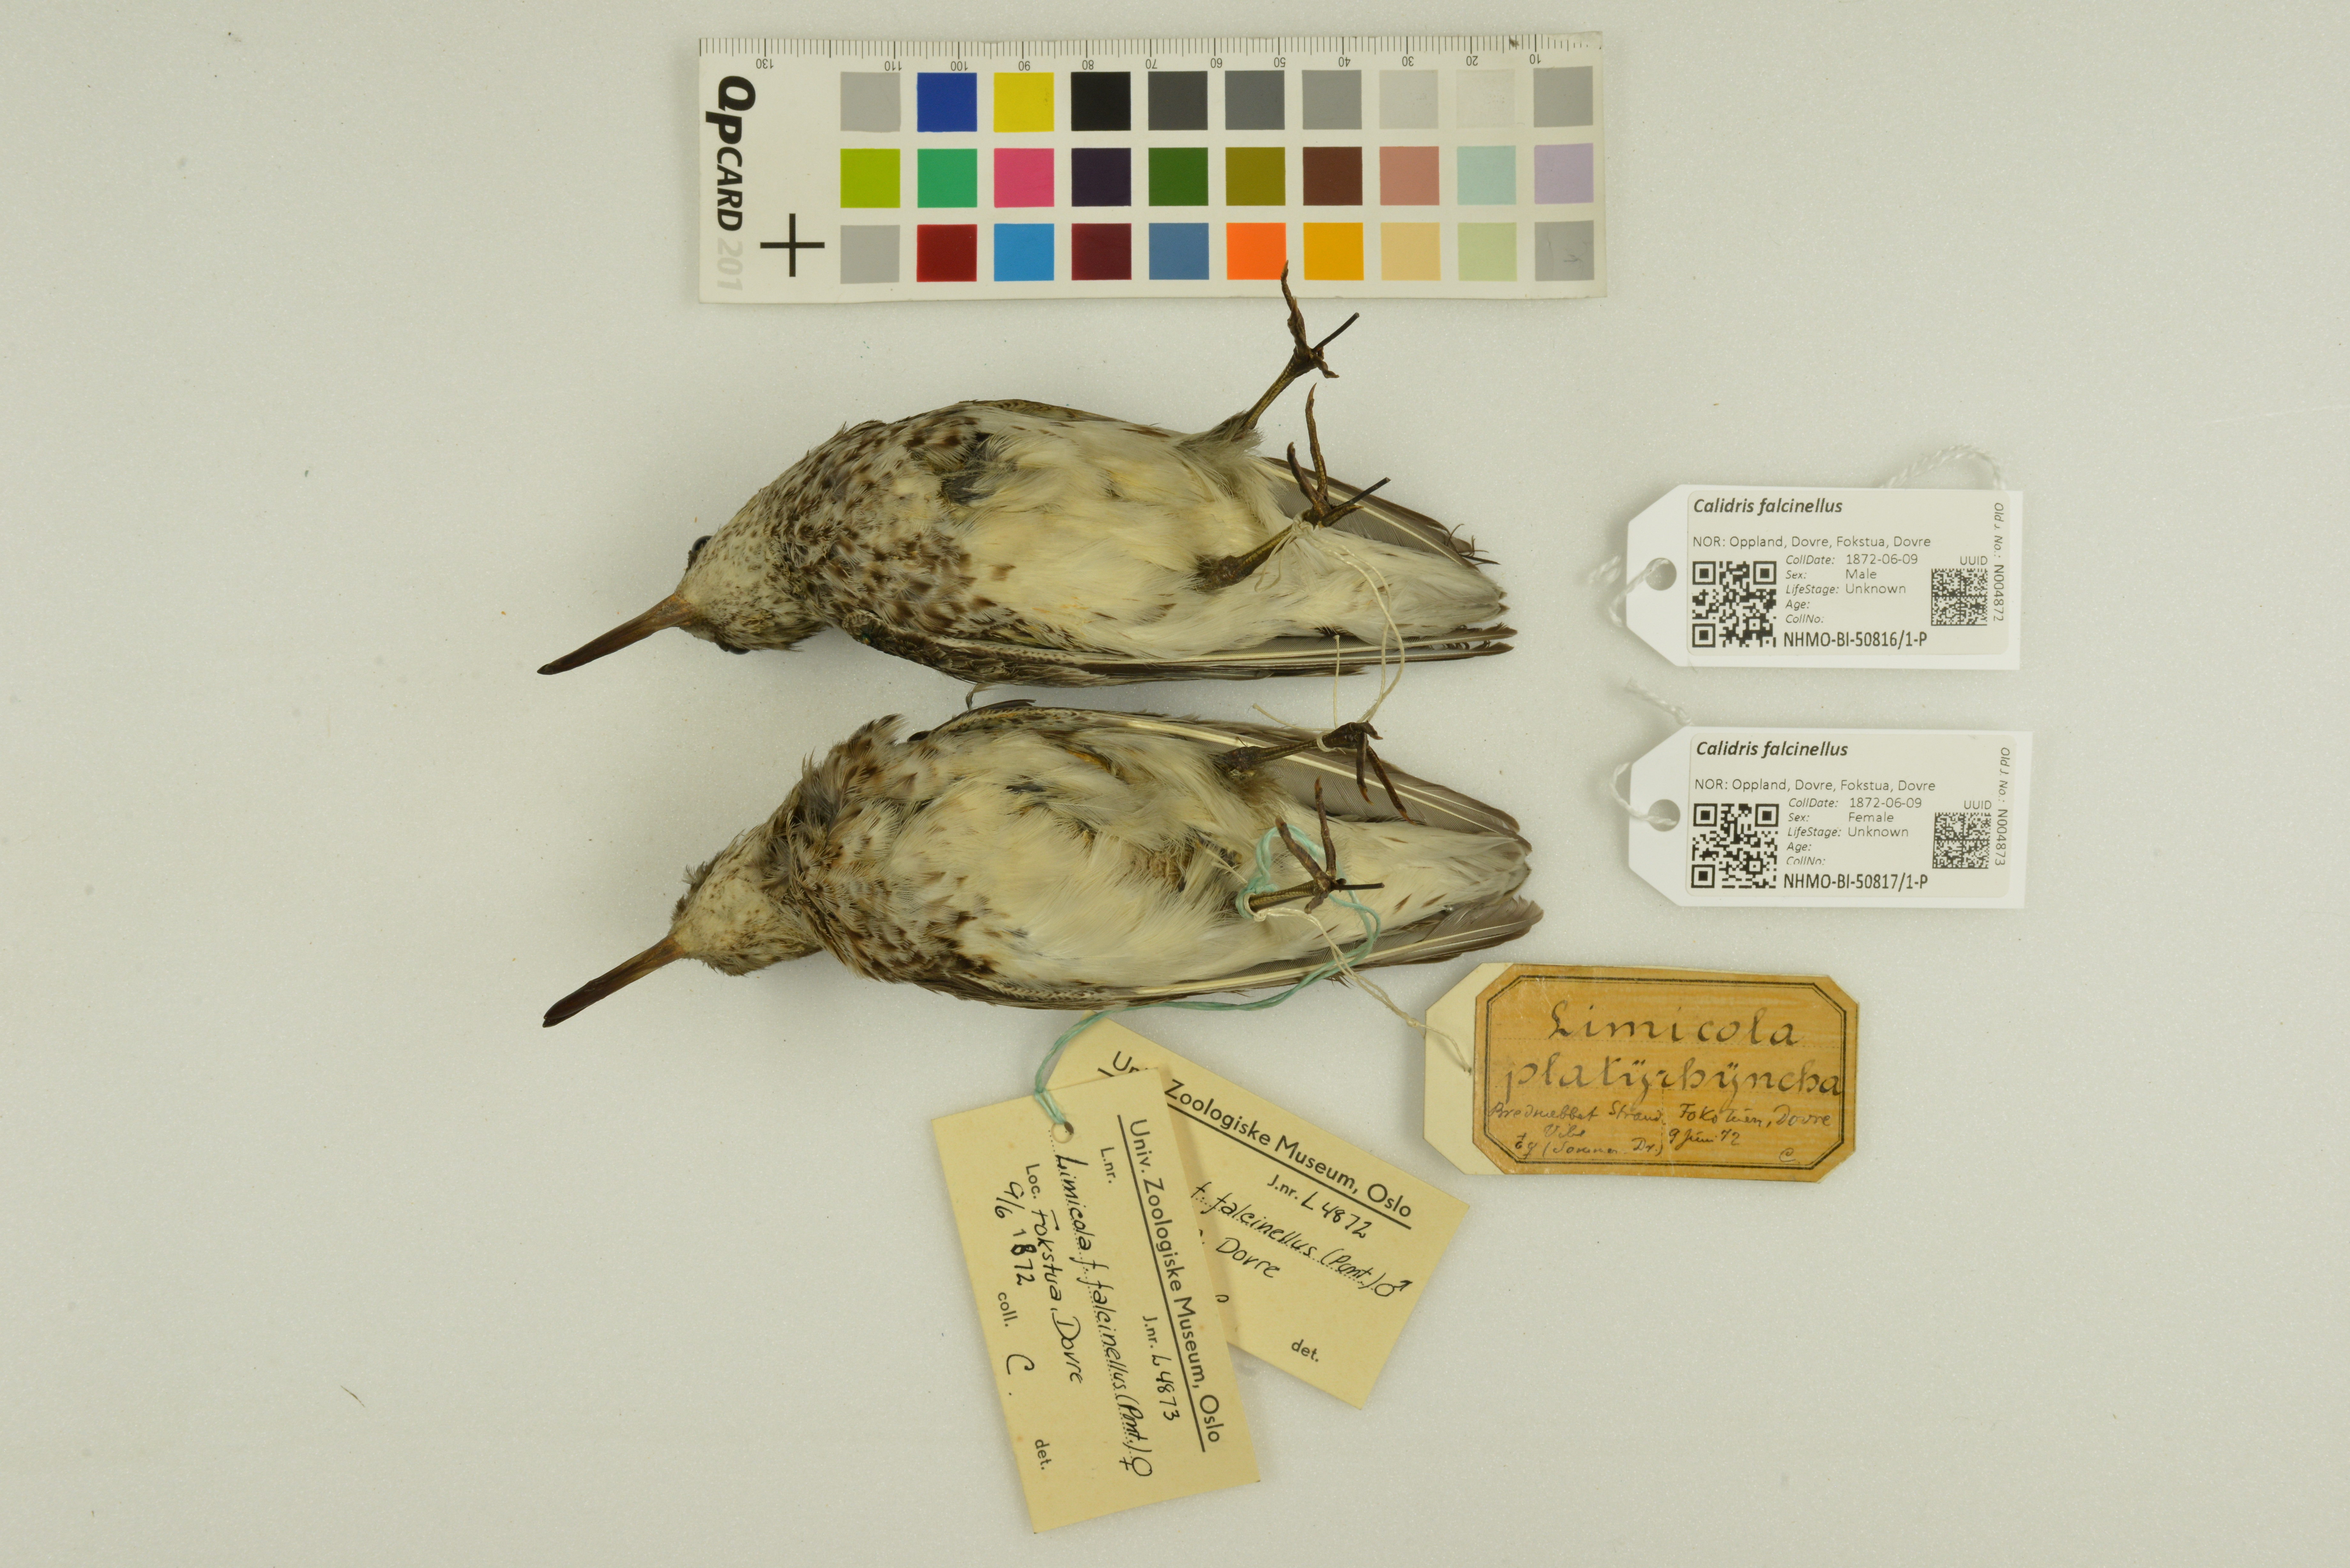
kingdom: Animalia
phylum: Chordata
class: Aves
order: Charadriiformes
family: Scolopacidae
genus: Calidris
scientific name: Calidris falcinellus
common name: Broad-billed sandpiper
